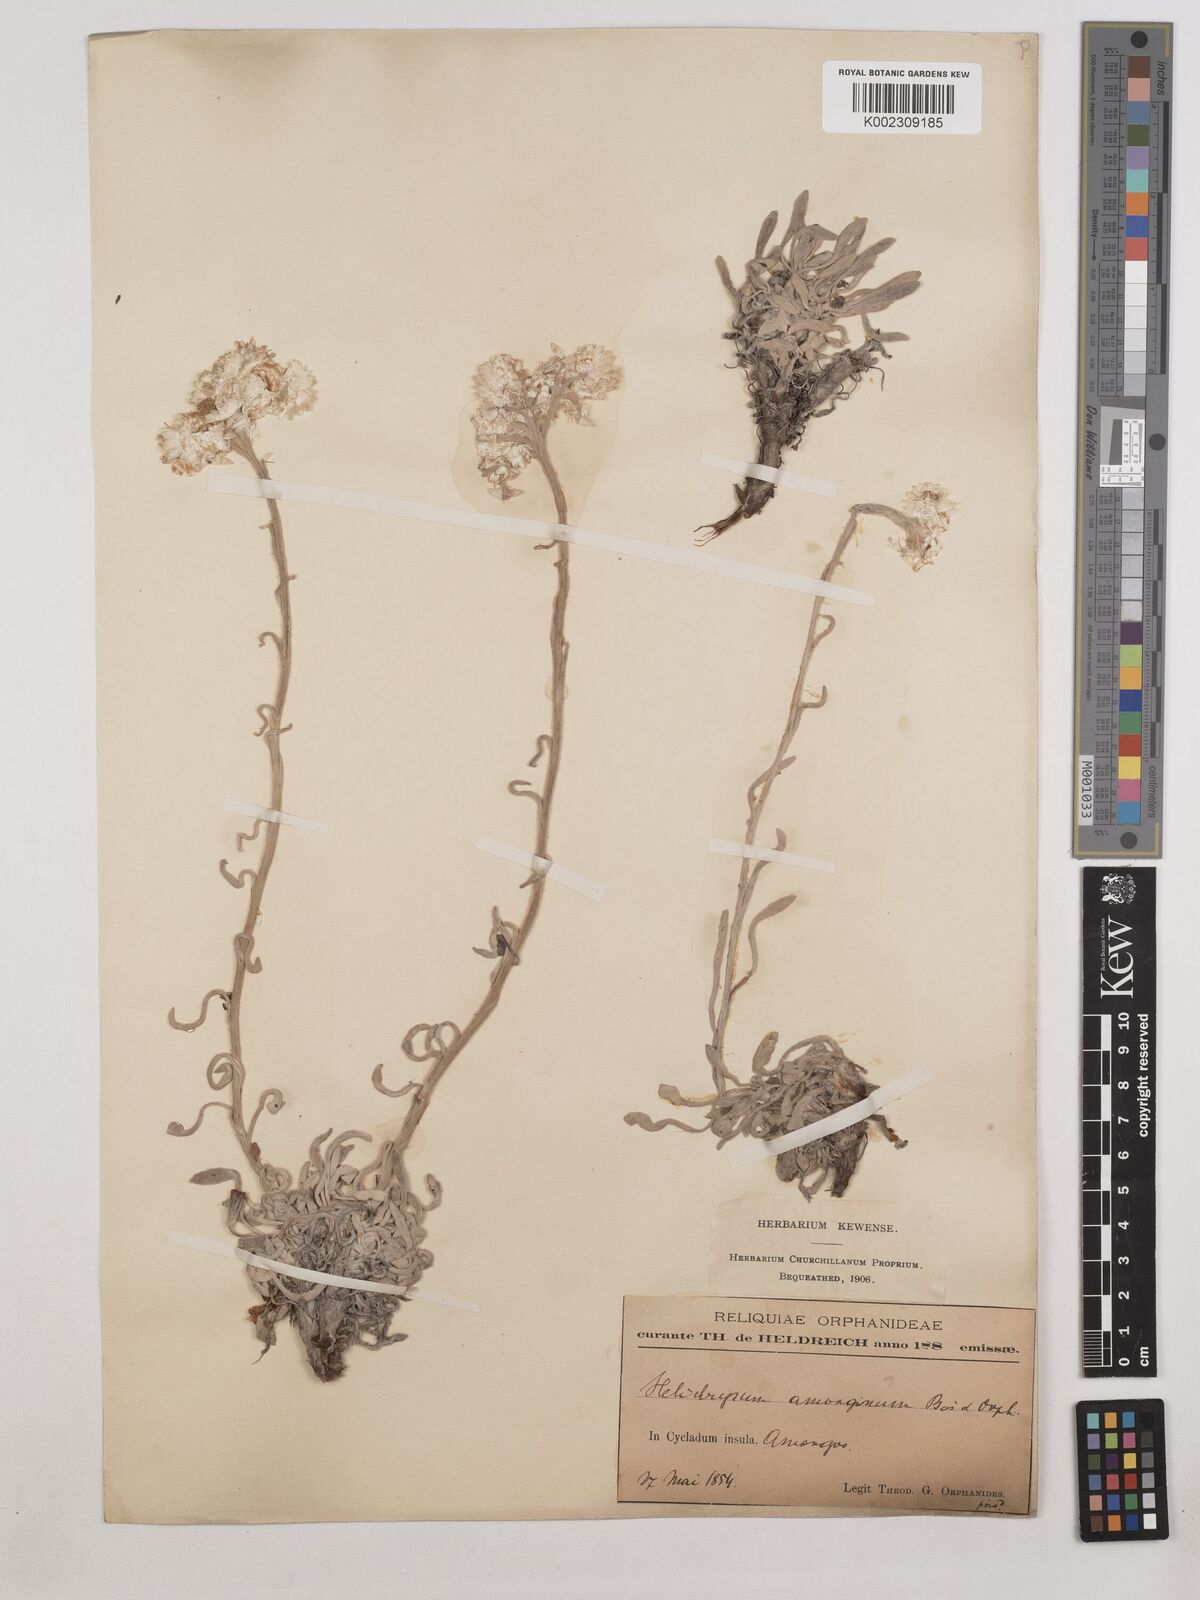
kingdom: Plantae
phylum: Tracheophyta
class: Magnoliopsida
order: Asterales
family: Asteraceae
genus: Helichrysum
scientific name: Helichrysum amorginum
